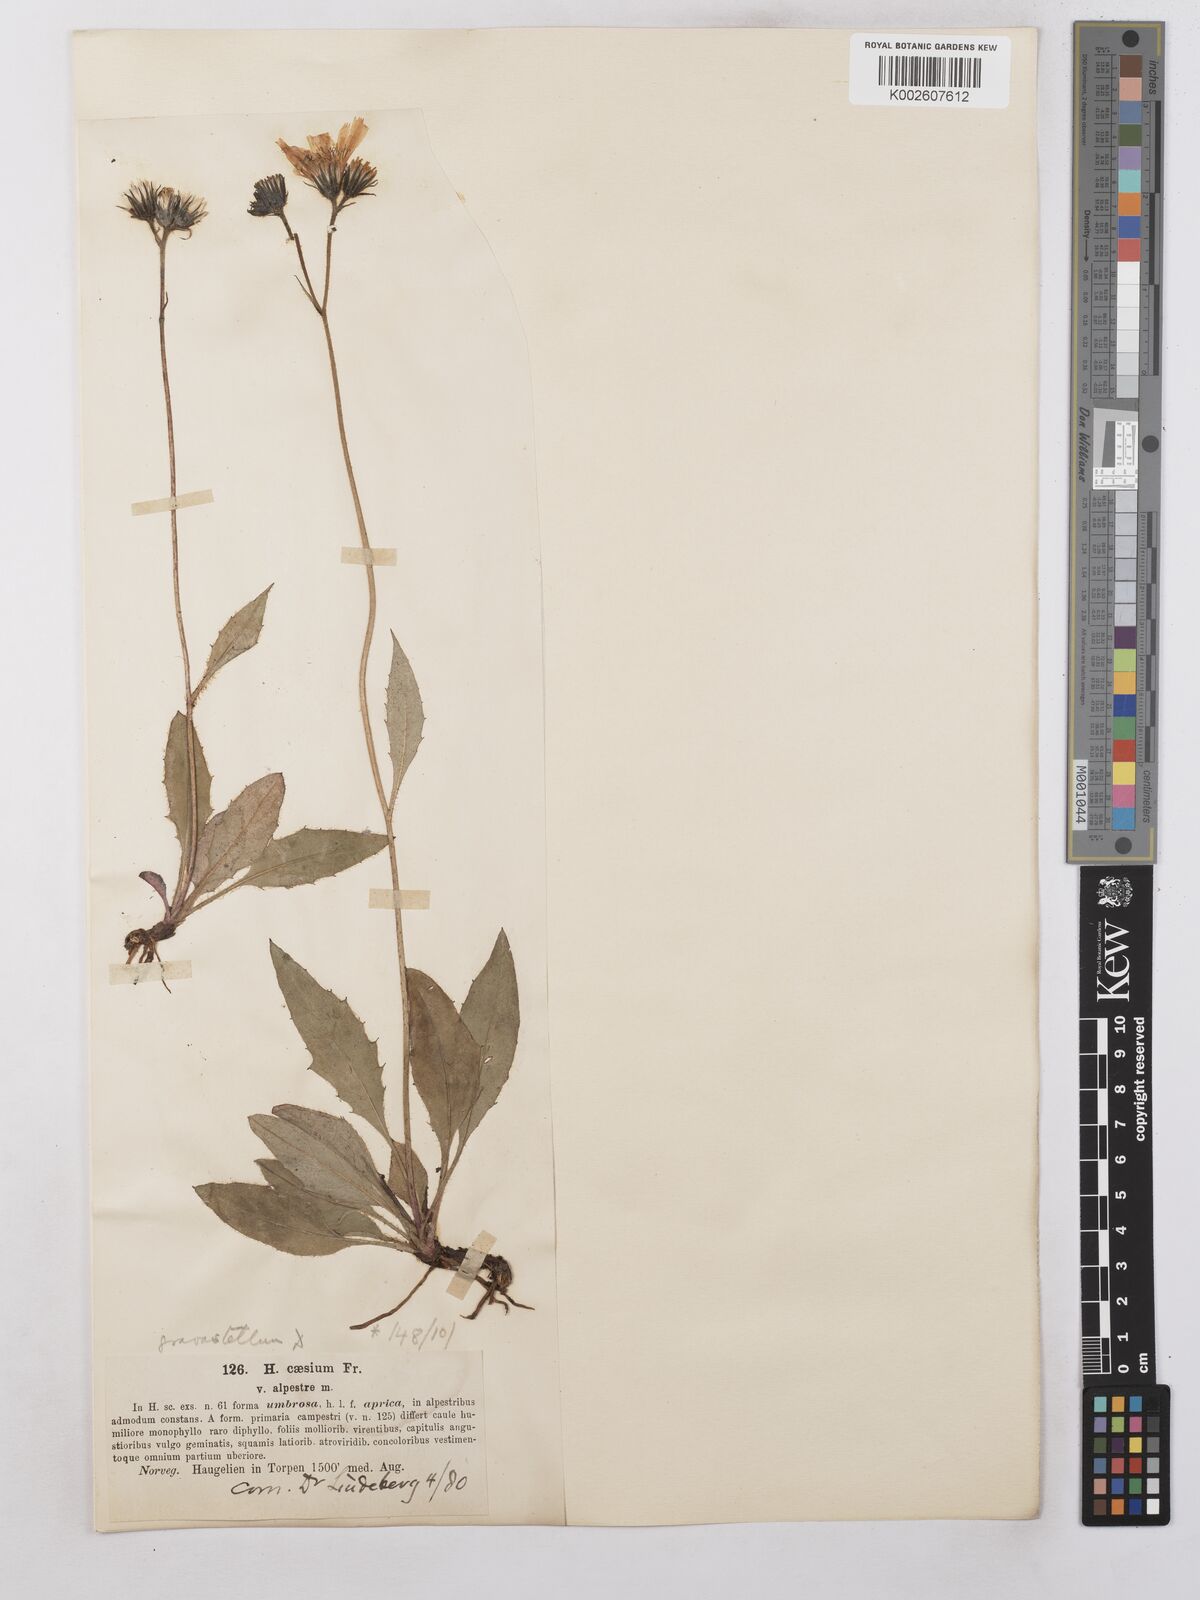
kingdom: Plantae
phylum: Tracheophyta
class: Magnoliopsida
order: Asterales
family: Asteraceae
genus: Hieracium
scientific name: Hieracium subramosum
